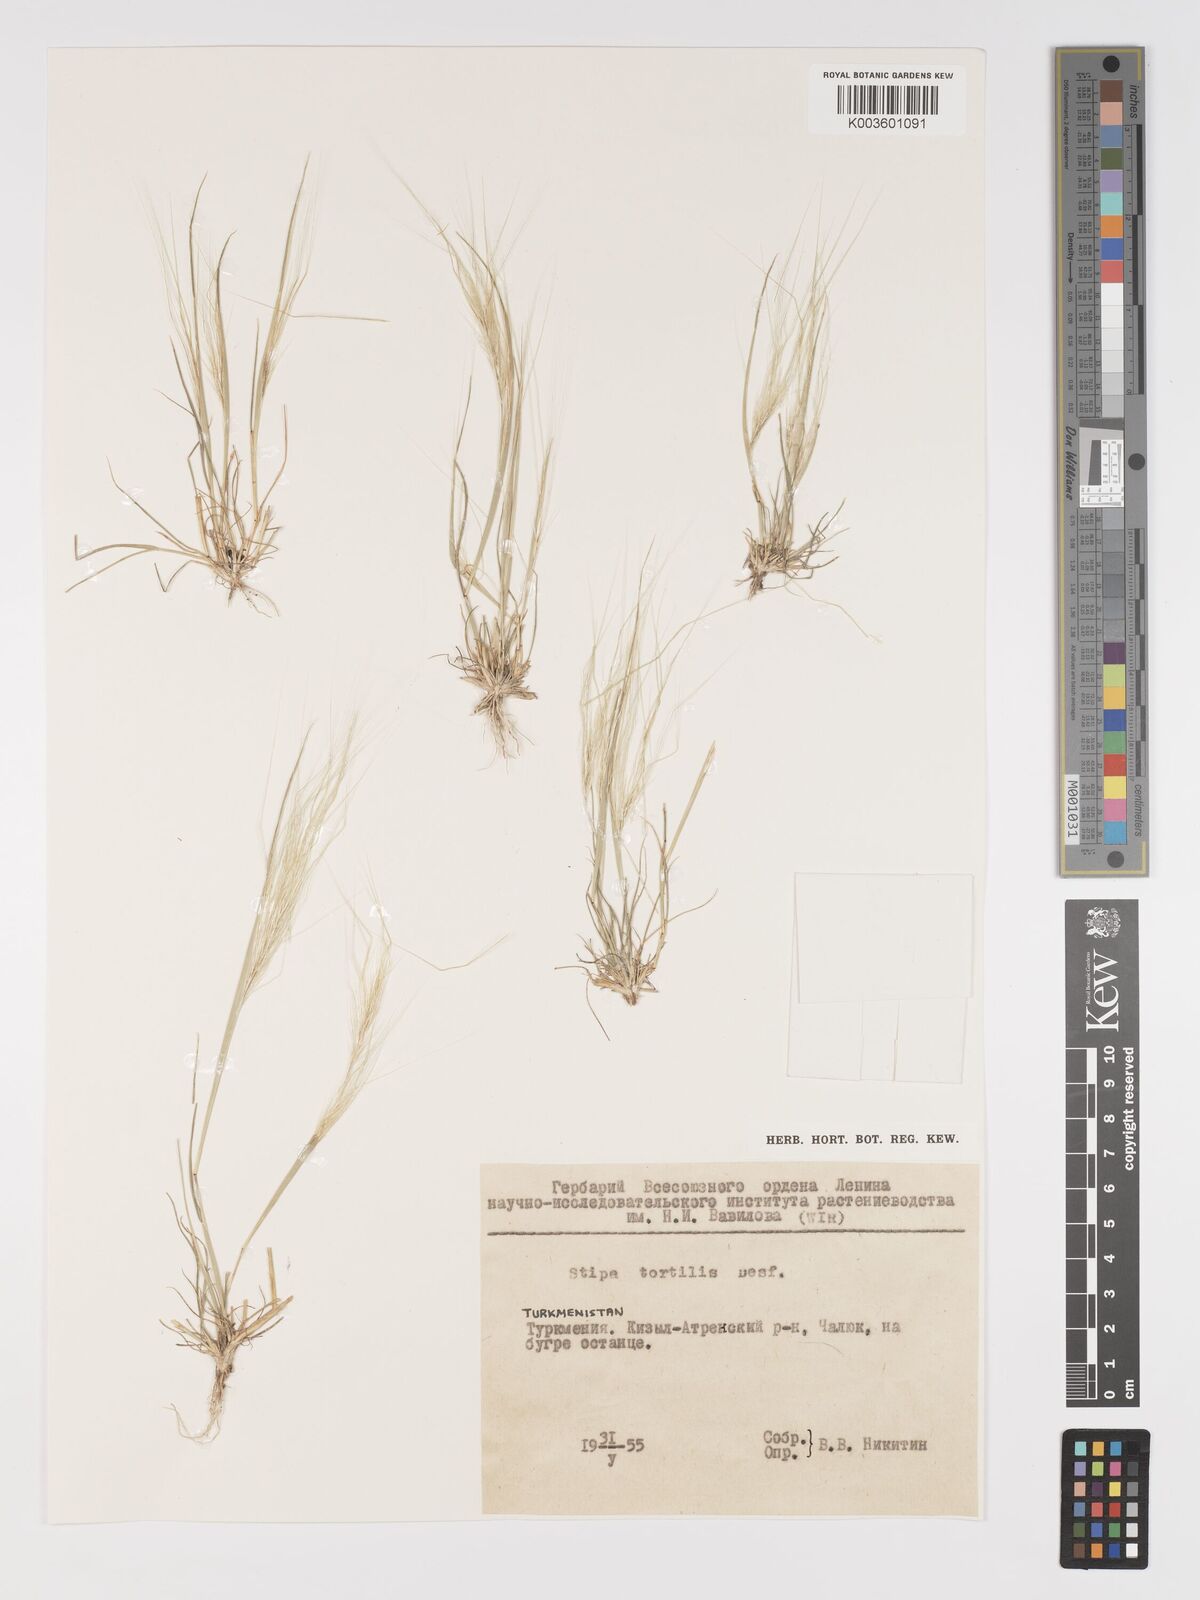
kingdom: Plantae
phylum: Tracheophyta
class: Liliopsida
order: Poales
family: Poaceae
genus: Stipa
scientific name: Stipa dregeana
